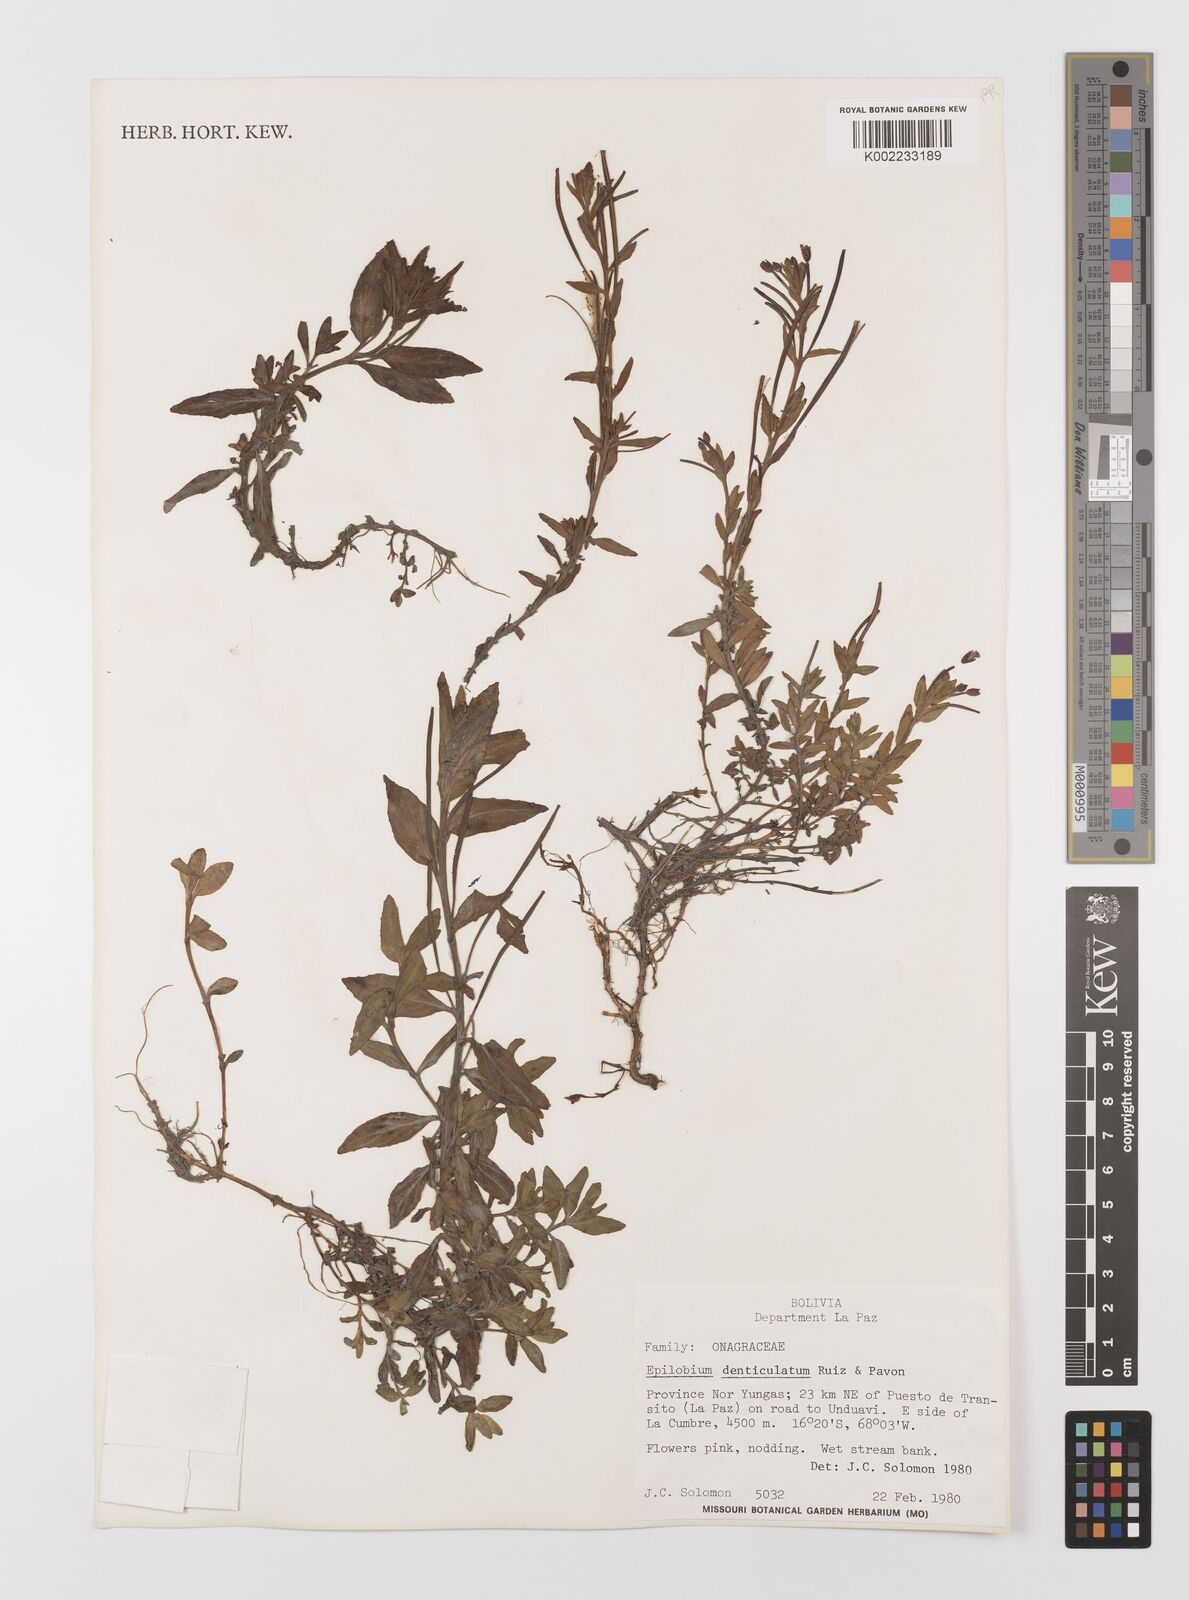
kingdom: Plantae
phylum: Tracheophyta
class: Magnoliopsida
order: Myrtales
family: Onagraceae
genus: Epilobium
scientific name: Epilobium denticulatum
